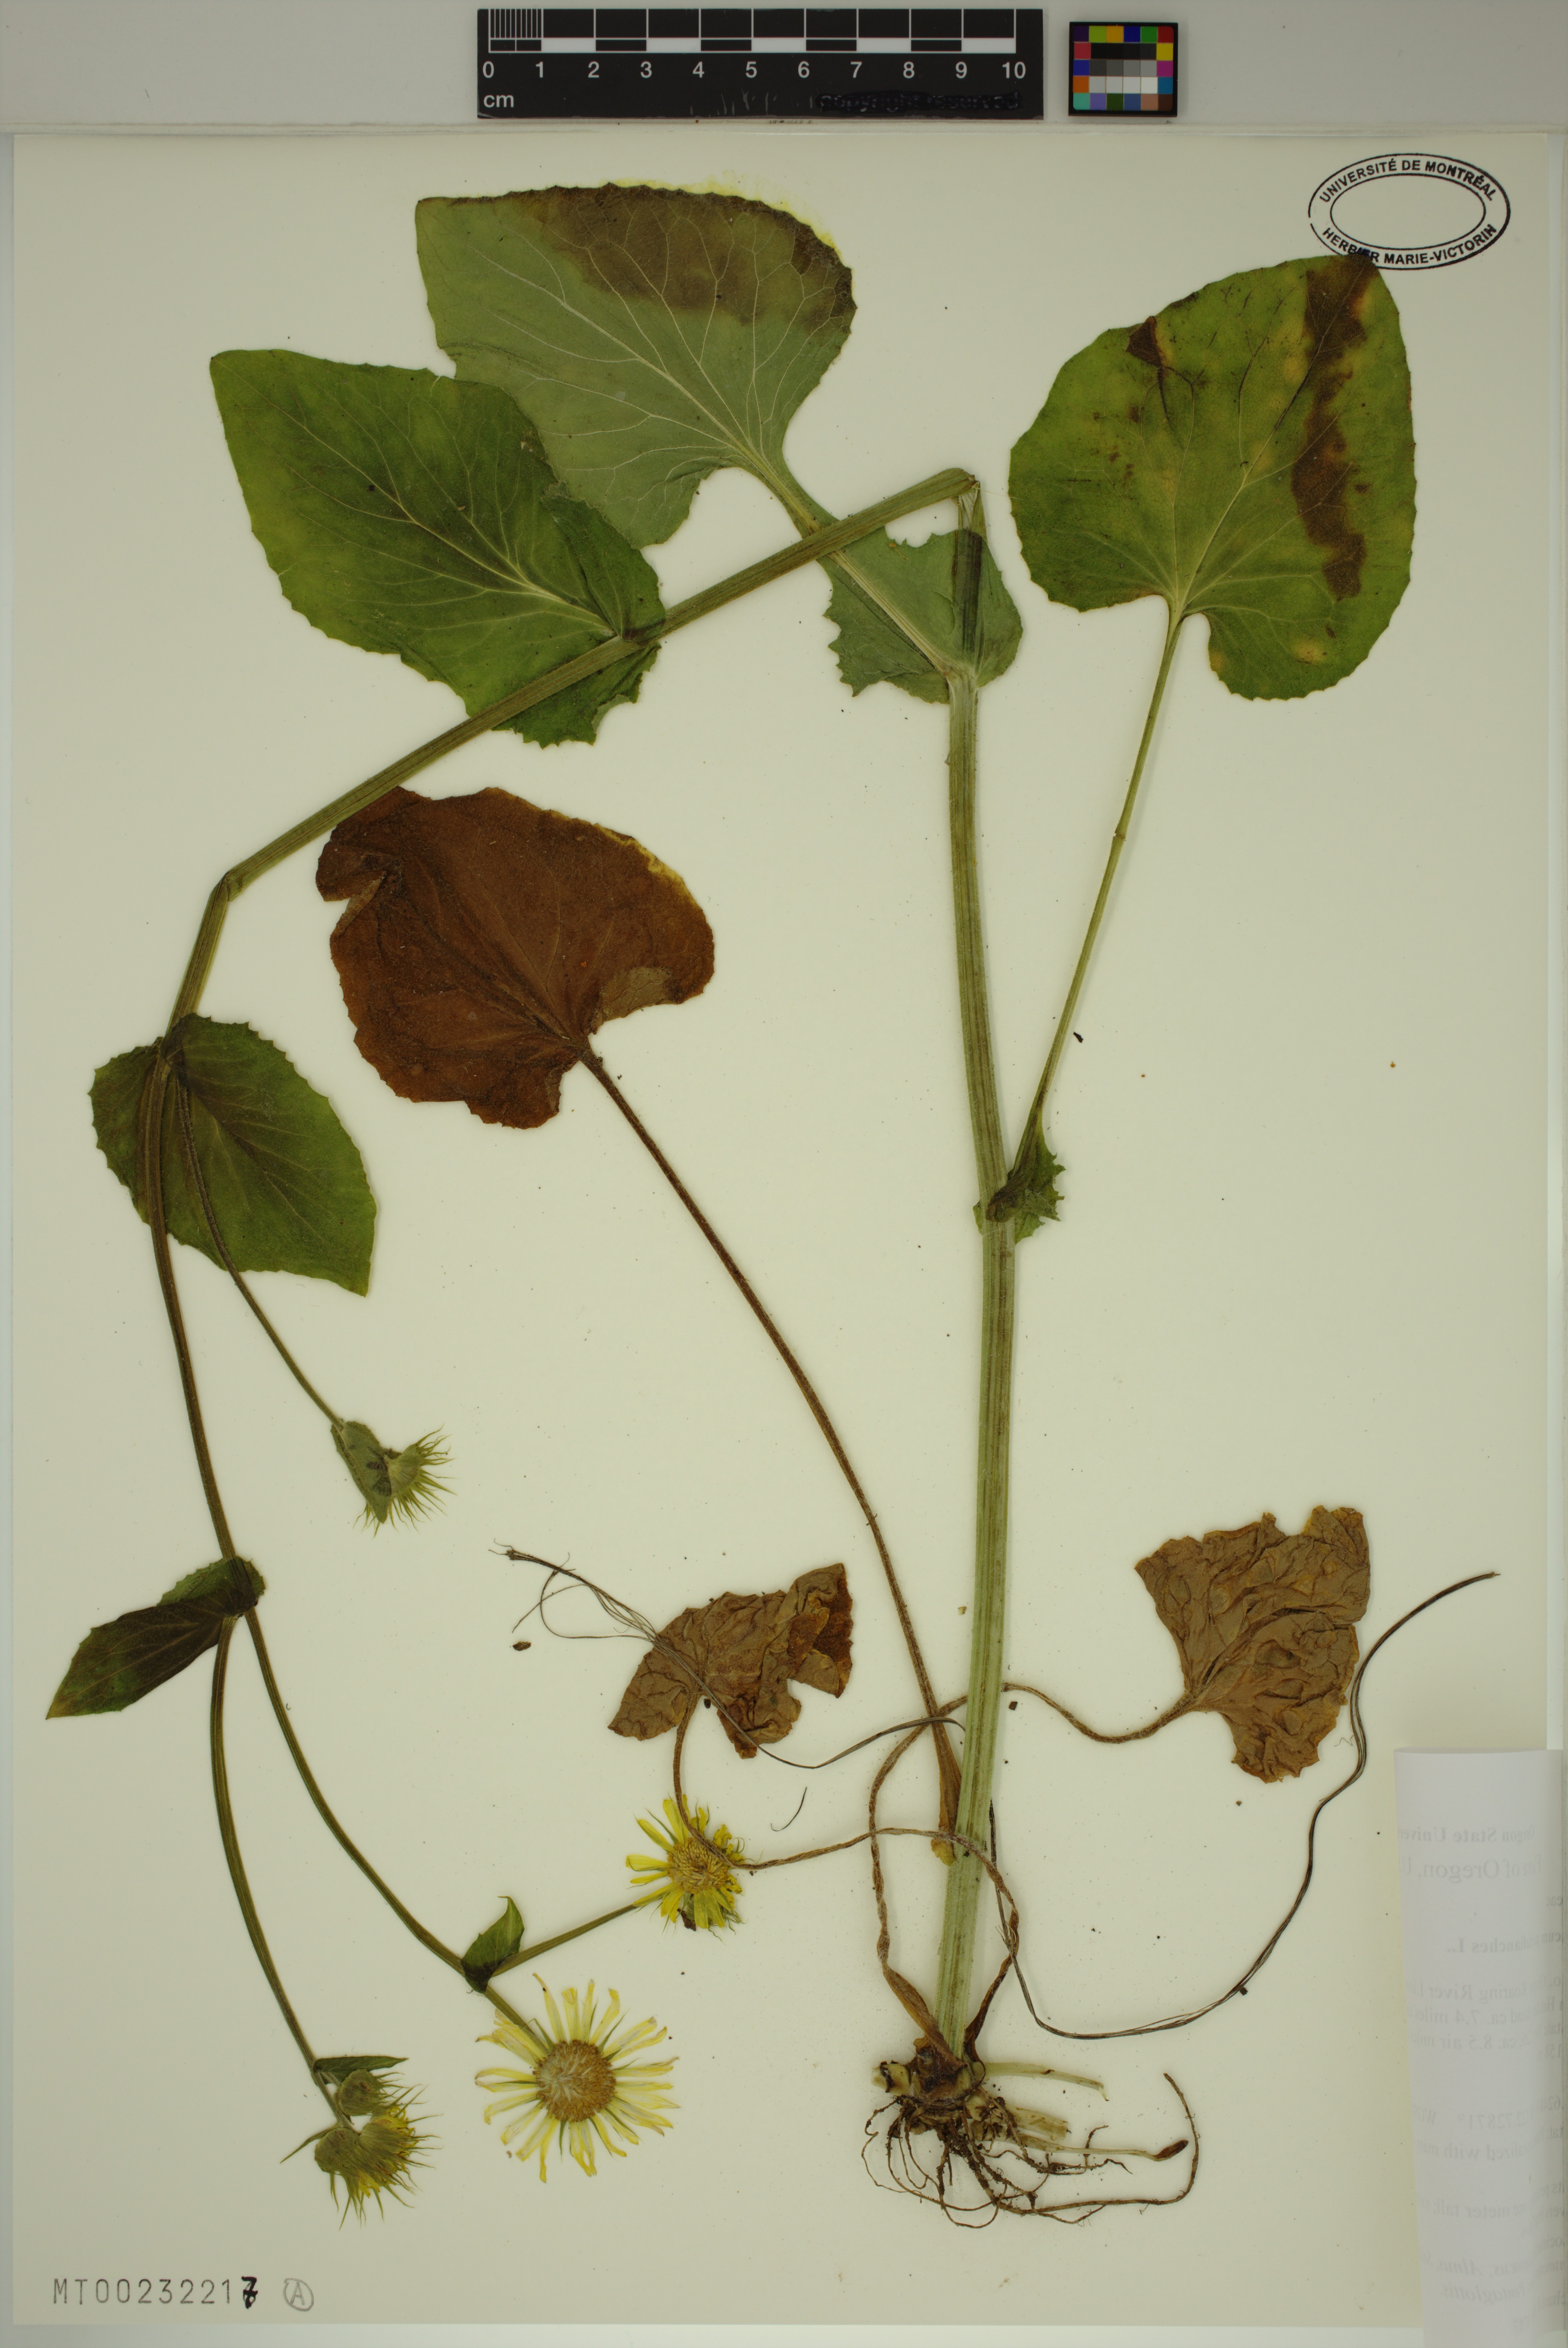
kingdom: Plantae
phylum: Tracheophyta
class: Magnoliopsida
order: Asterales
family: Asteraceae
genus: Doronicum
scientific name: Doronicum pardalianches
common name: Leopard's-bane
